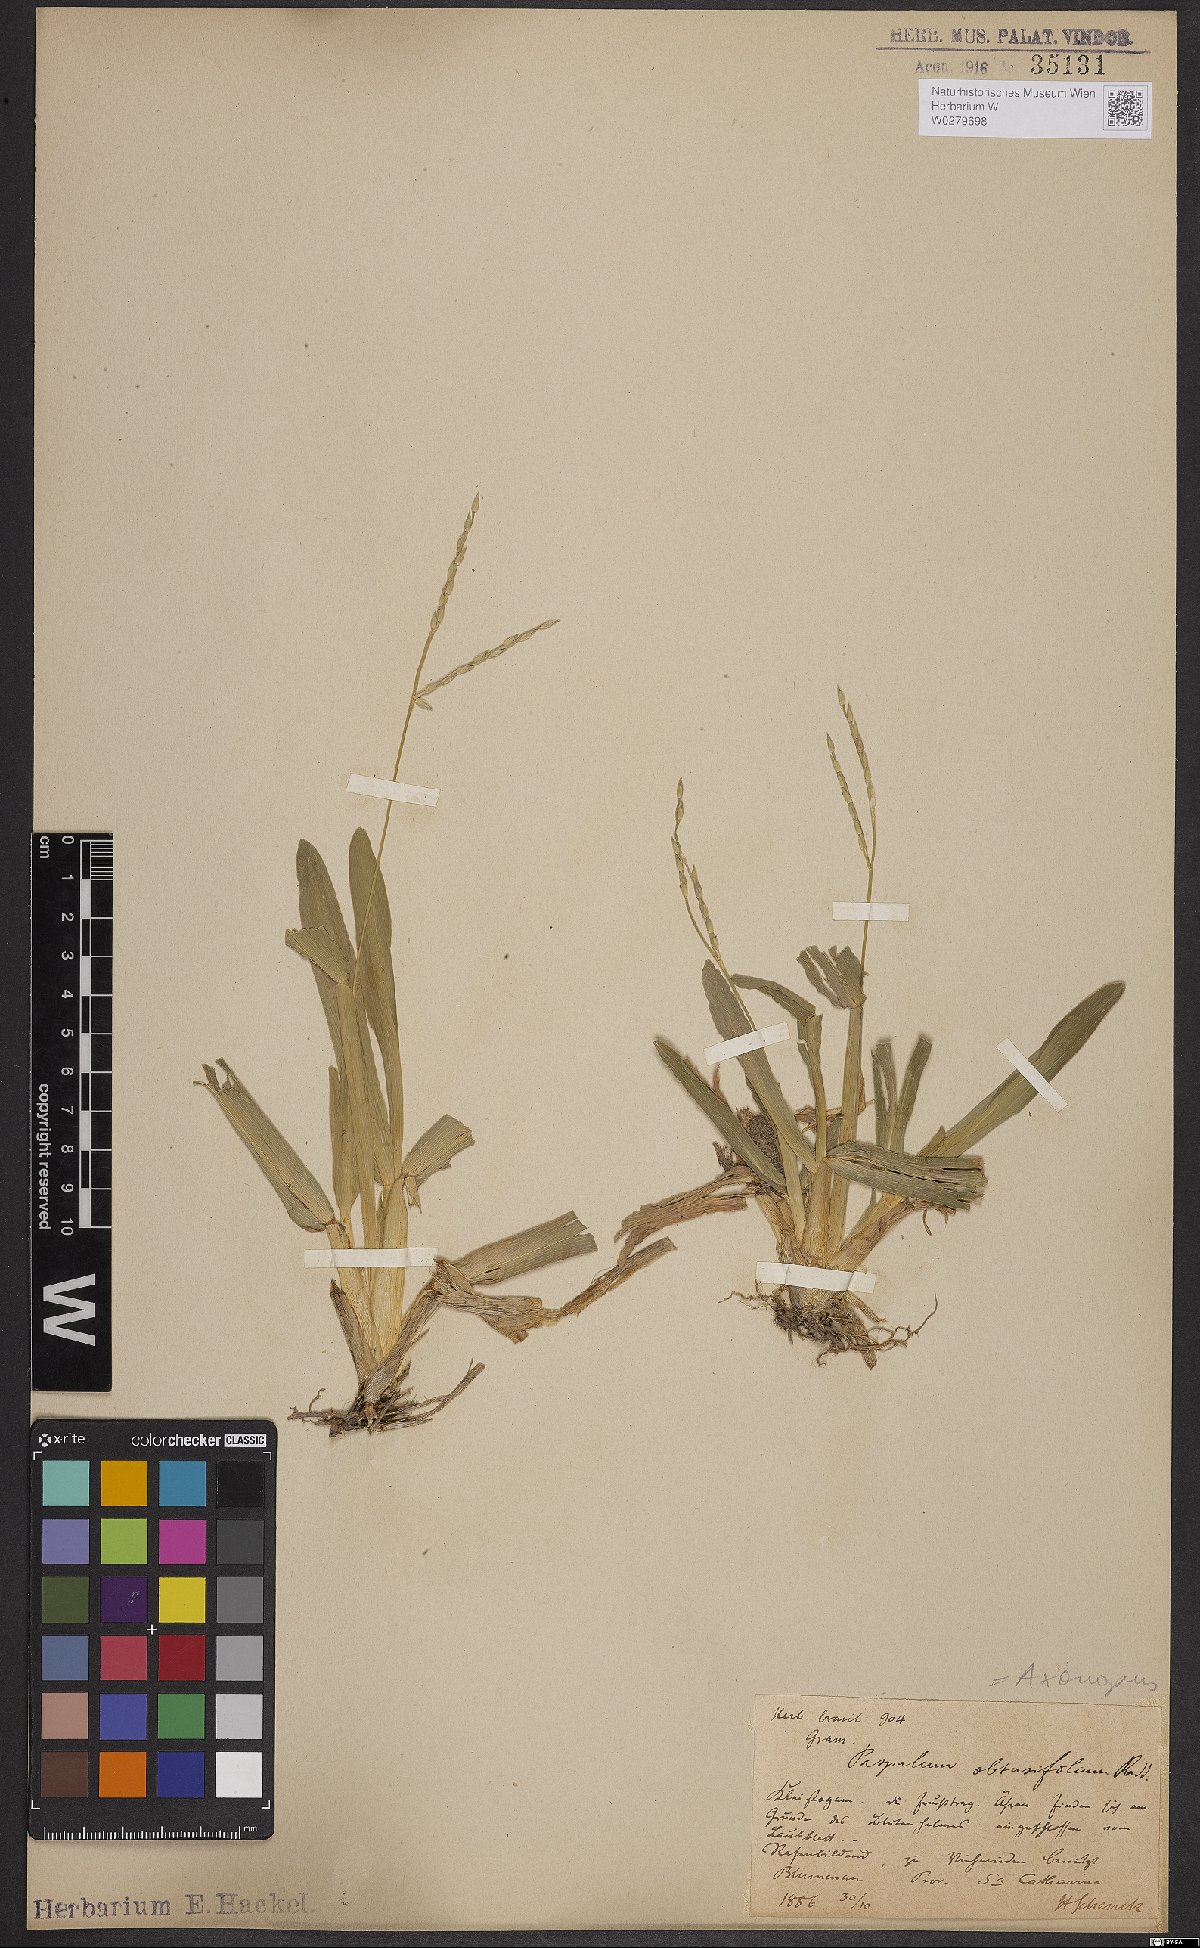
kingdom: Plantae
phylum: Tracheophyta
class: Liliopsida
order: Poales
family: Poaceae
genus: Axonopus
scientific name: Axonopus furcatus
